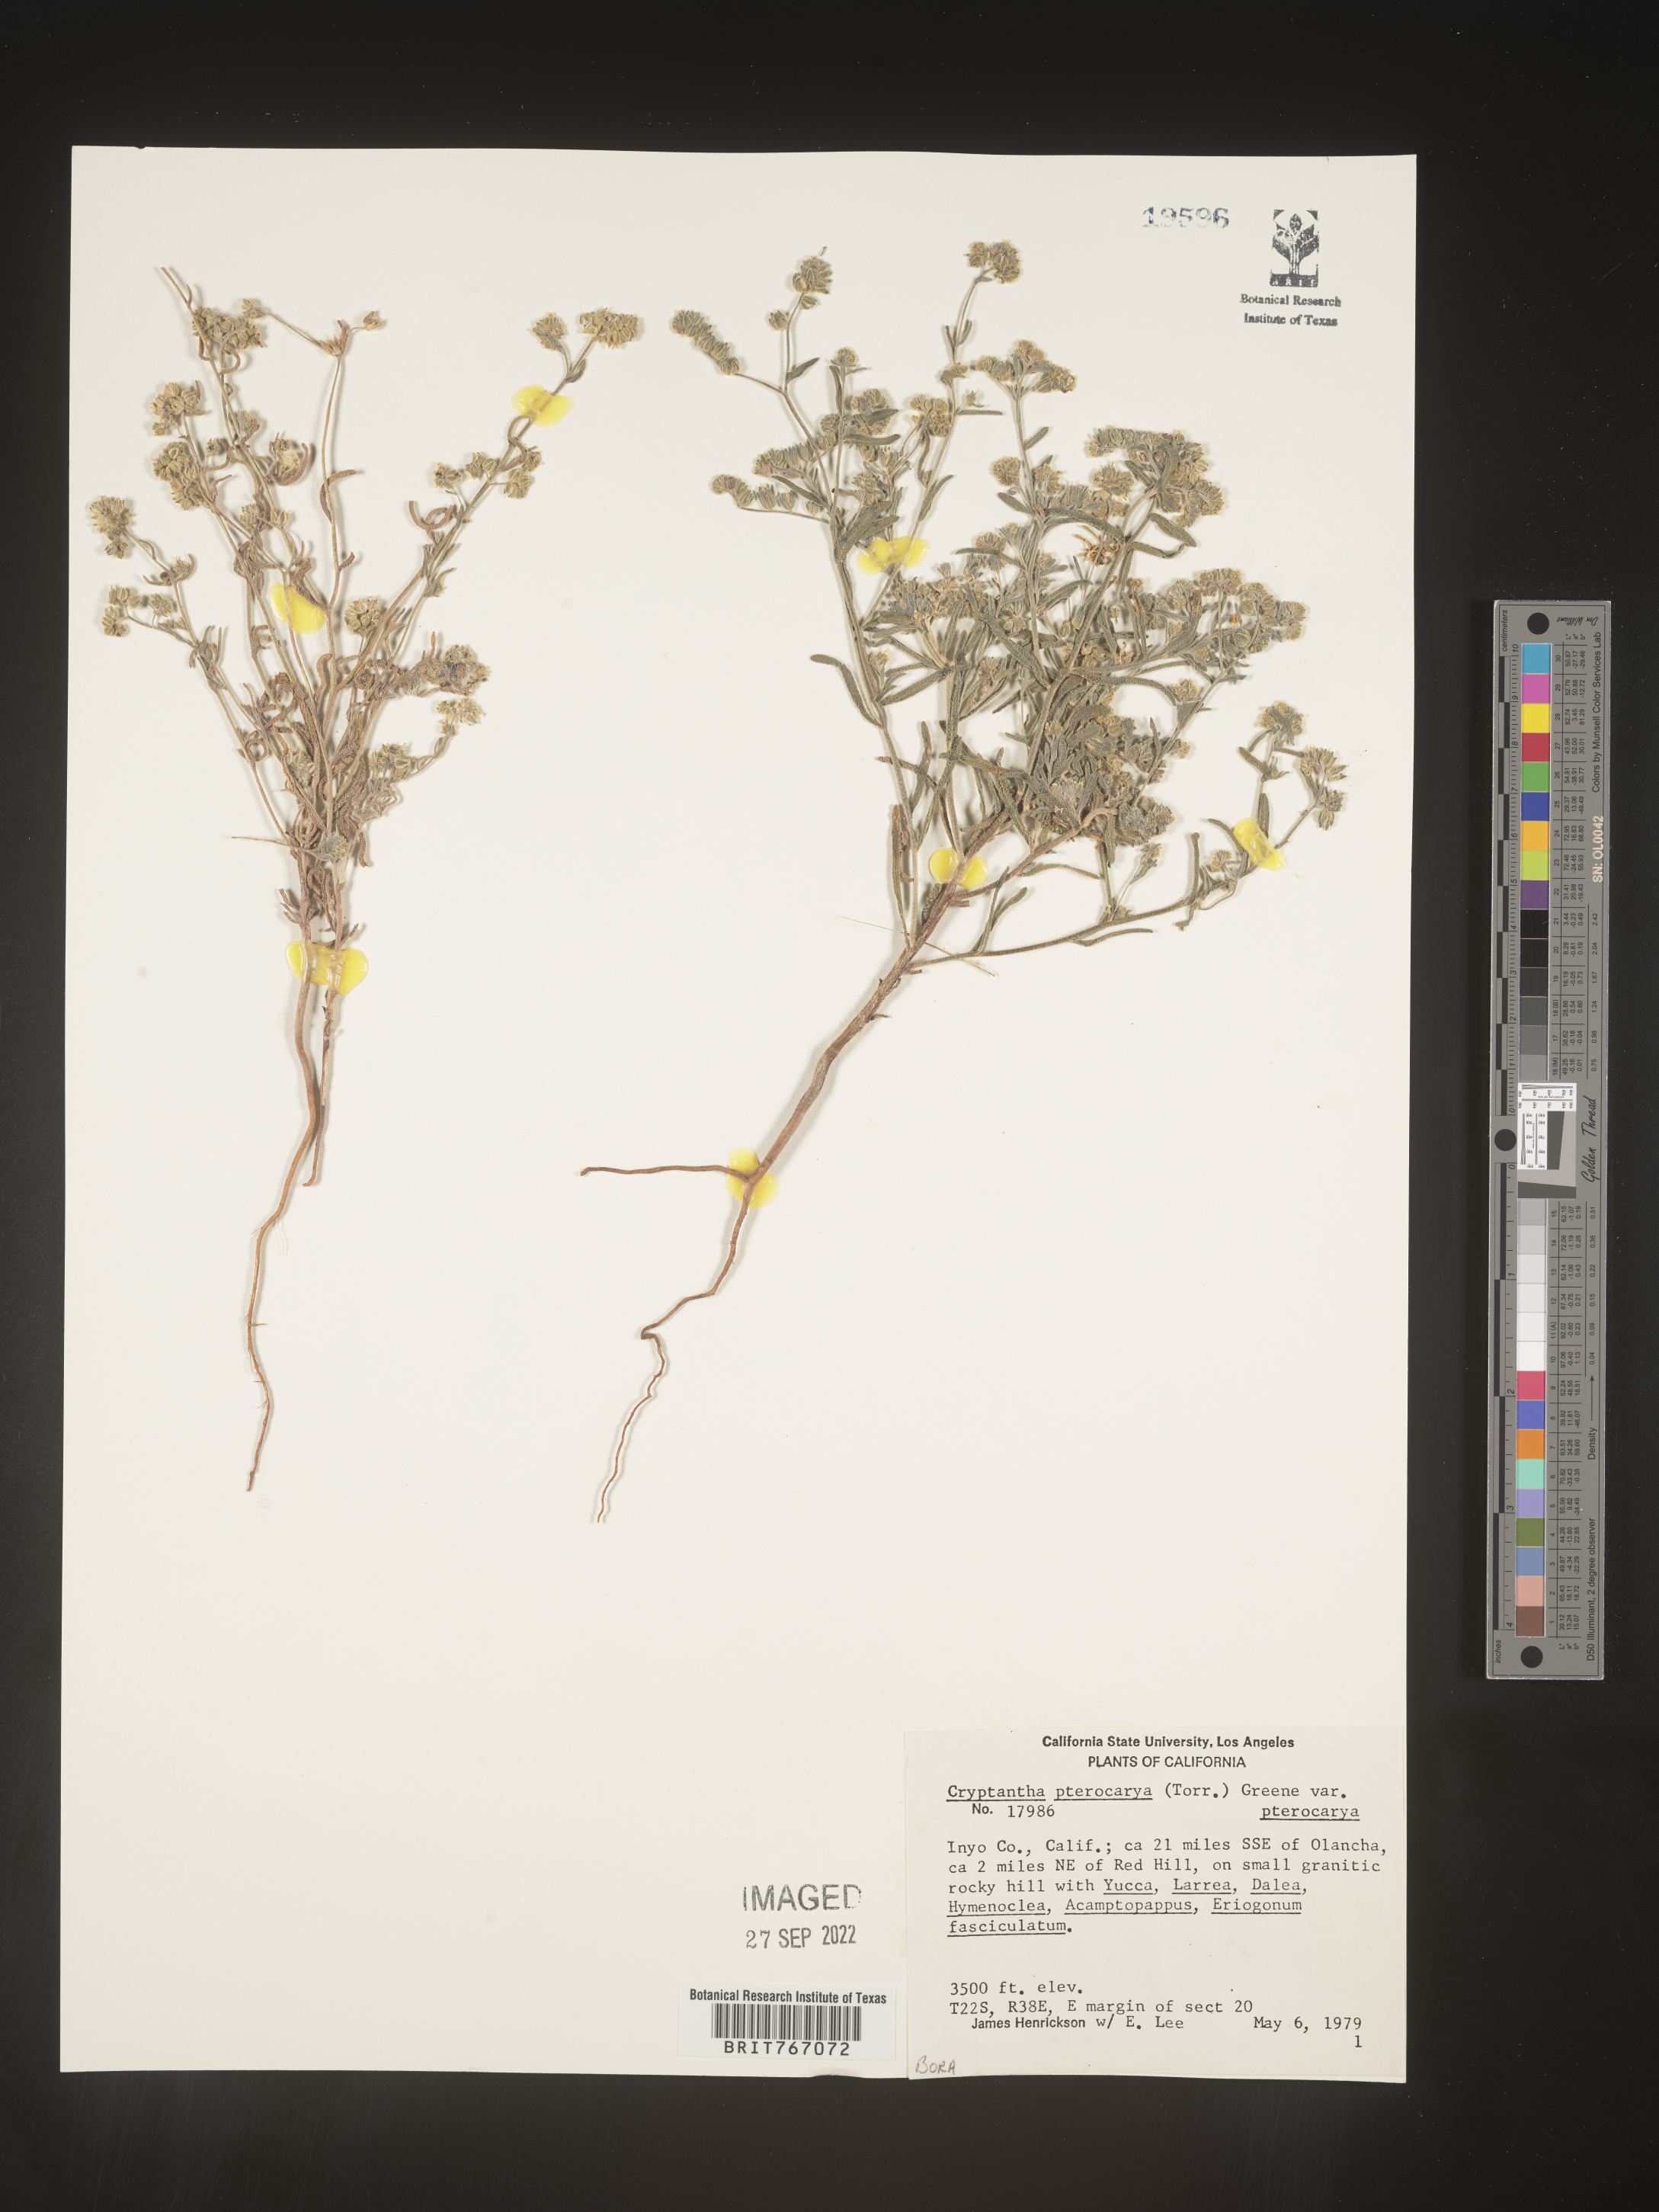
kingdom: Plantae
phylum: Tracheophyta
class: Magnoliopsida
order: Boraginales
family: Boraginaceae
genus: Cryptantha
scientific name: Cryptantha pterocarya
